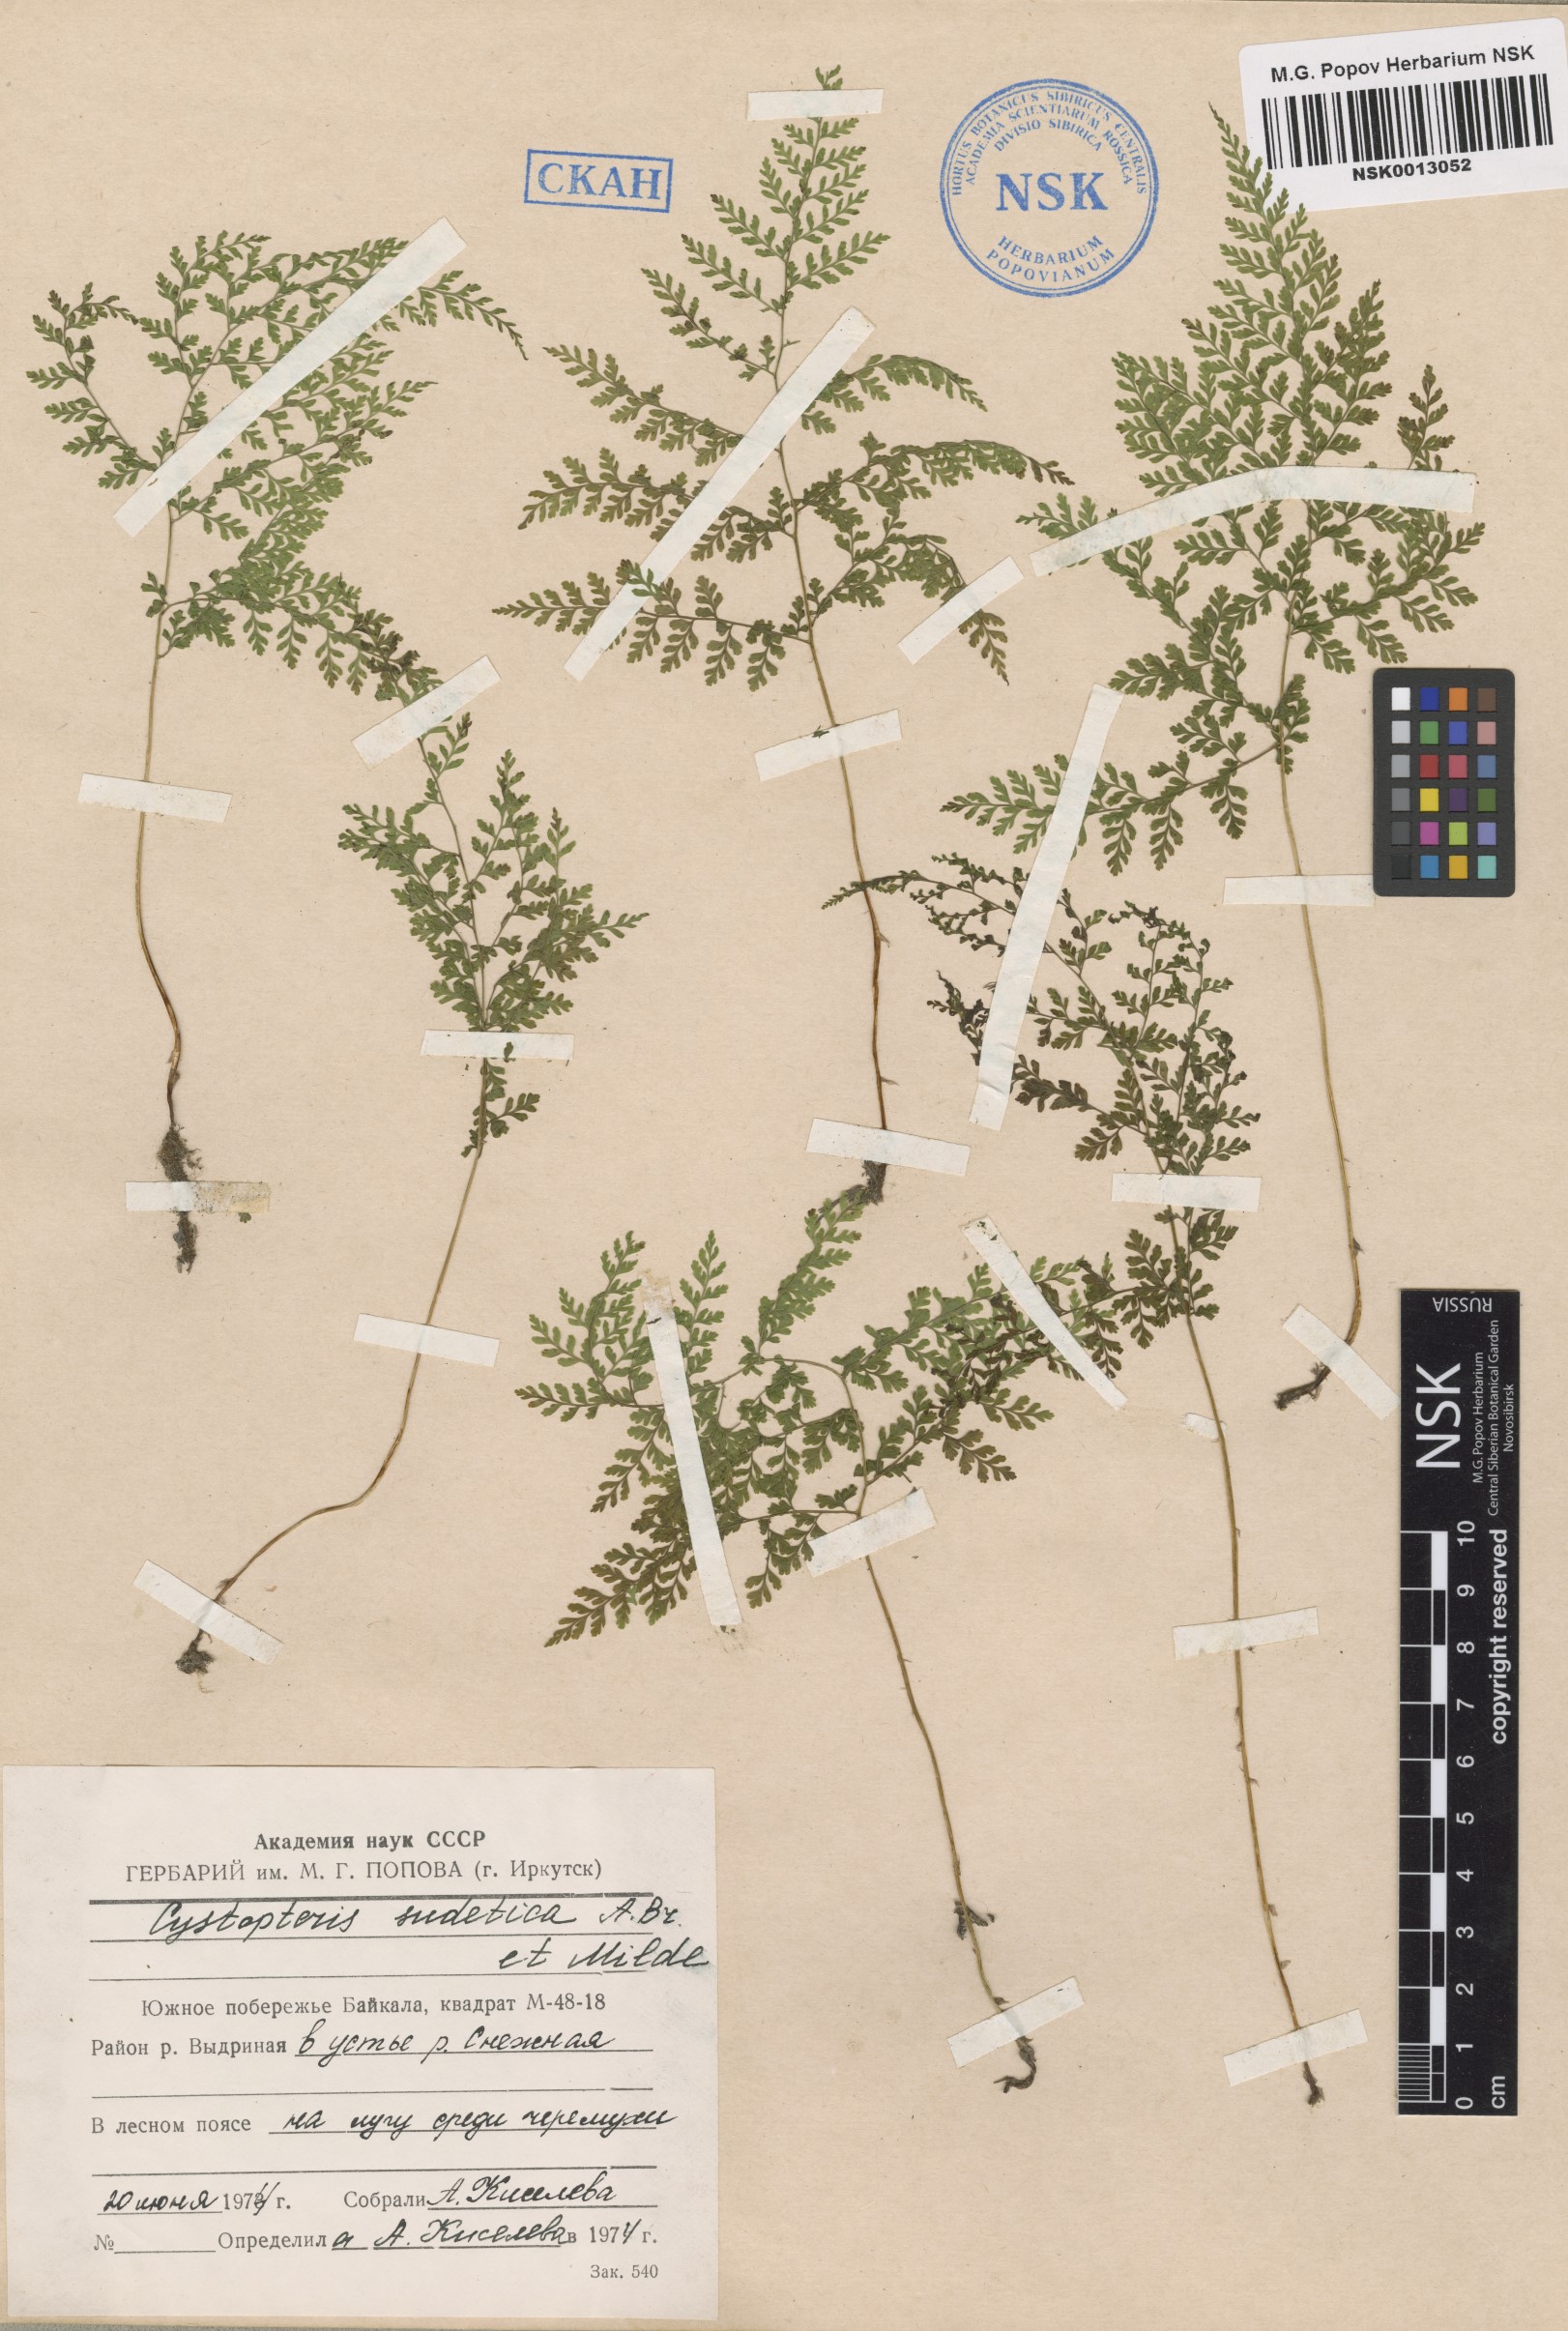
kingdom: Plantae
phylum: Tracheophyta
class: Polypodiopsida
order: Polypodiales
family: Cystopteridaceae
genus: Cystopteris
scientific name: Cystopteris sudetica
